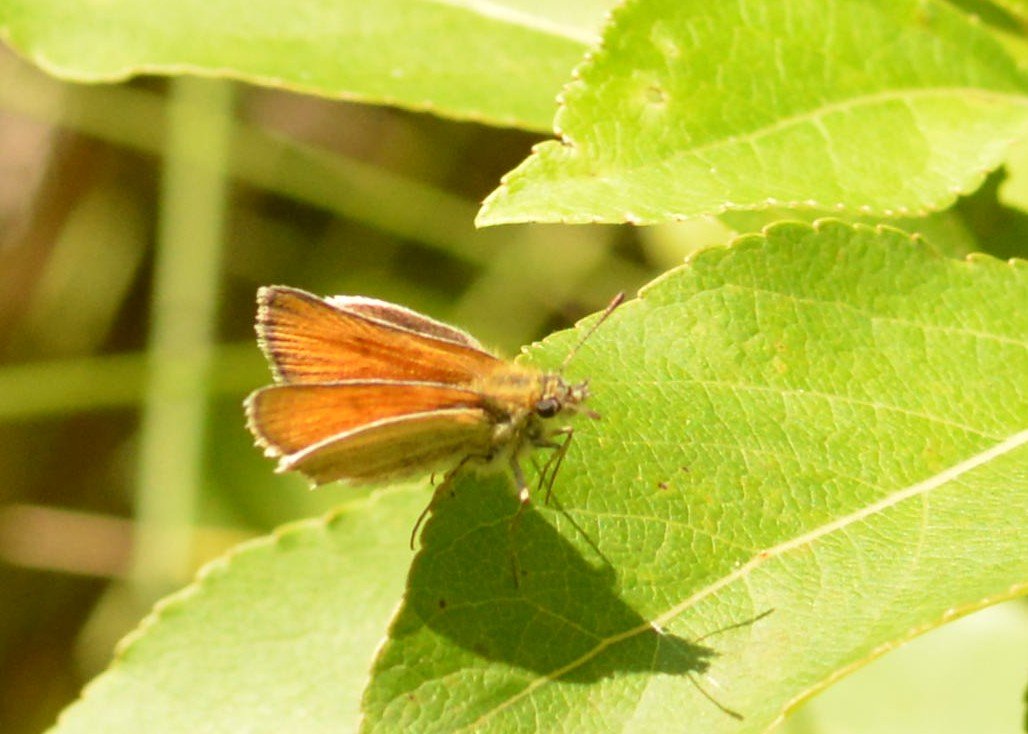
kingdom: Animalia
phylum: Arthropoda
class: Insecta
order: Lepidoptera
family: Hesperiidae
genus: Thymelicus
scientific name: Thymelicus lineola
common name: European Skipper
